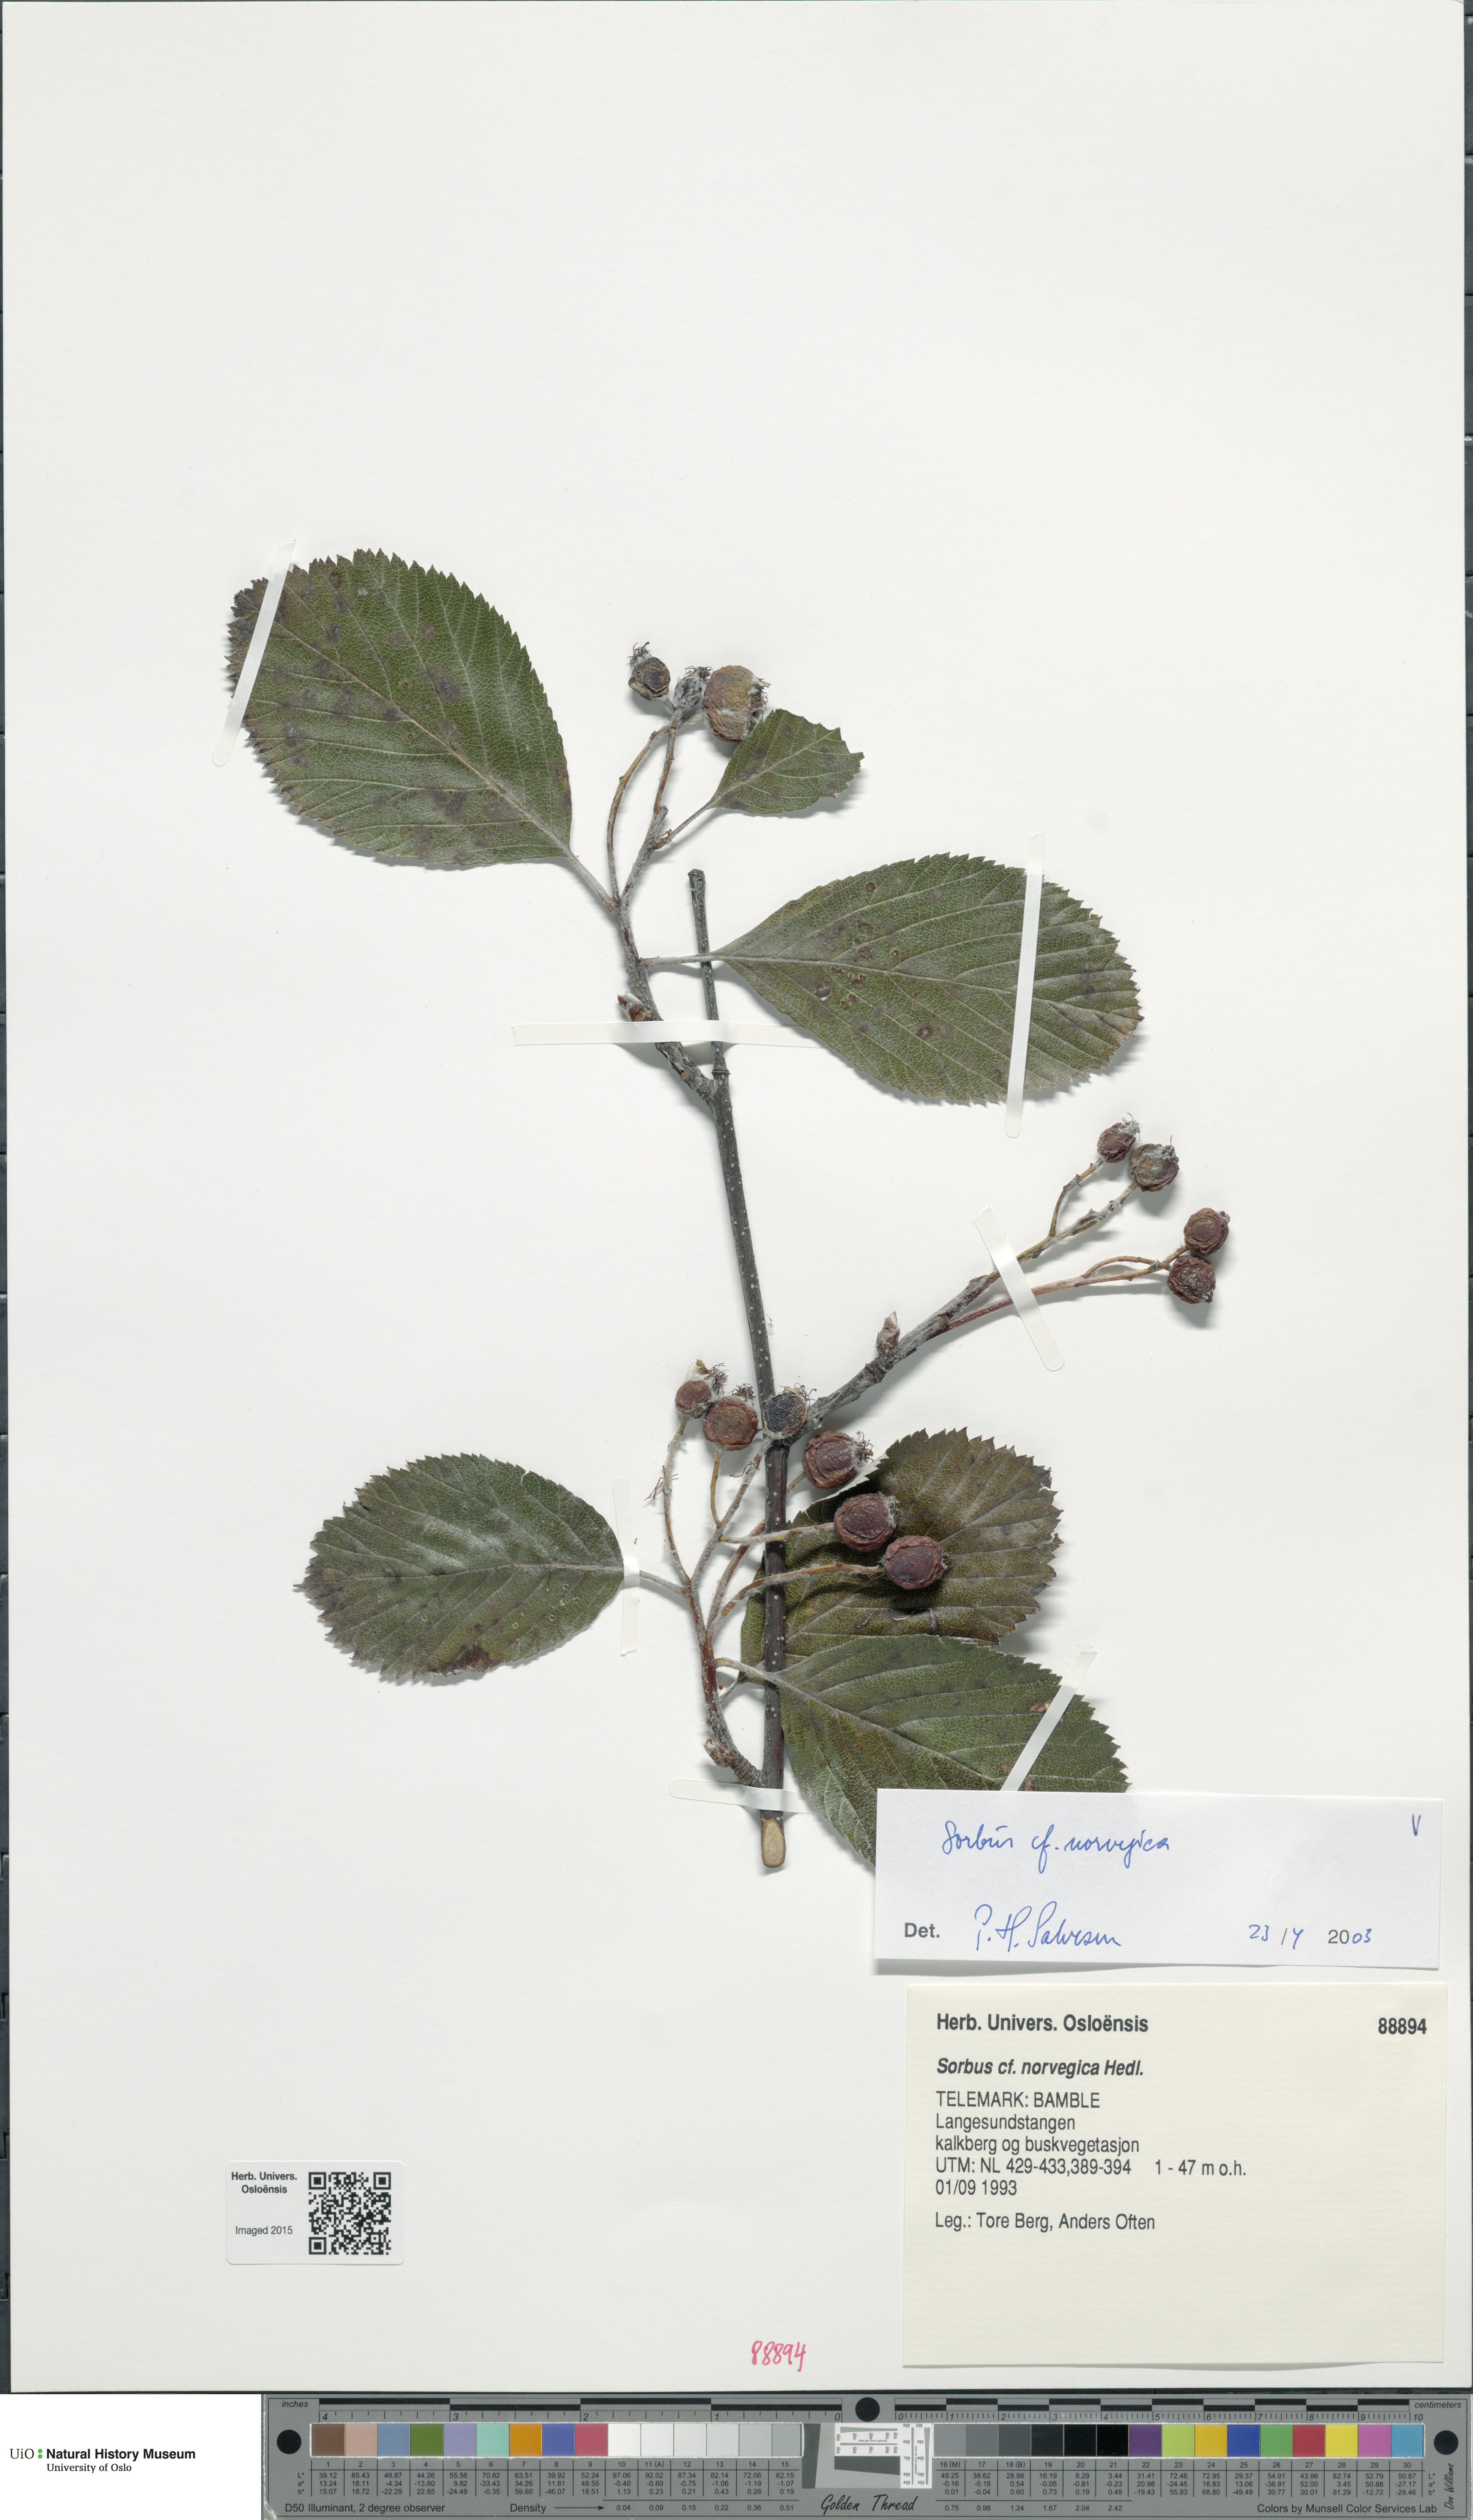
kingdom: Plantae
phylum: Tracheophyta
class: Magnoliopsida
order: Rosales
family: Rosaceae
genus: Aria
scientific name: Aria obtusifolia
